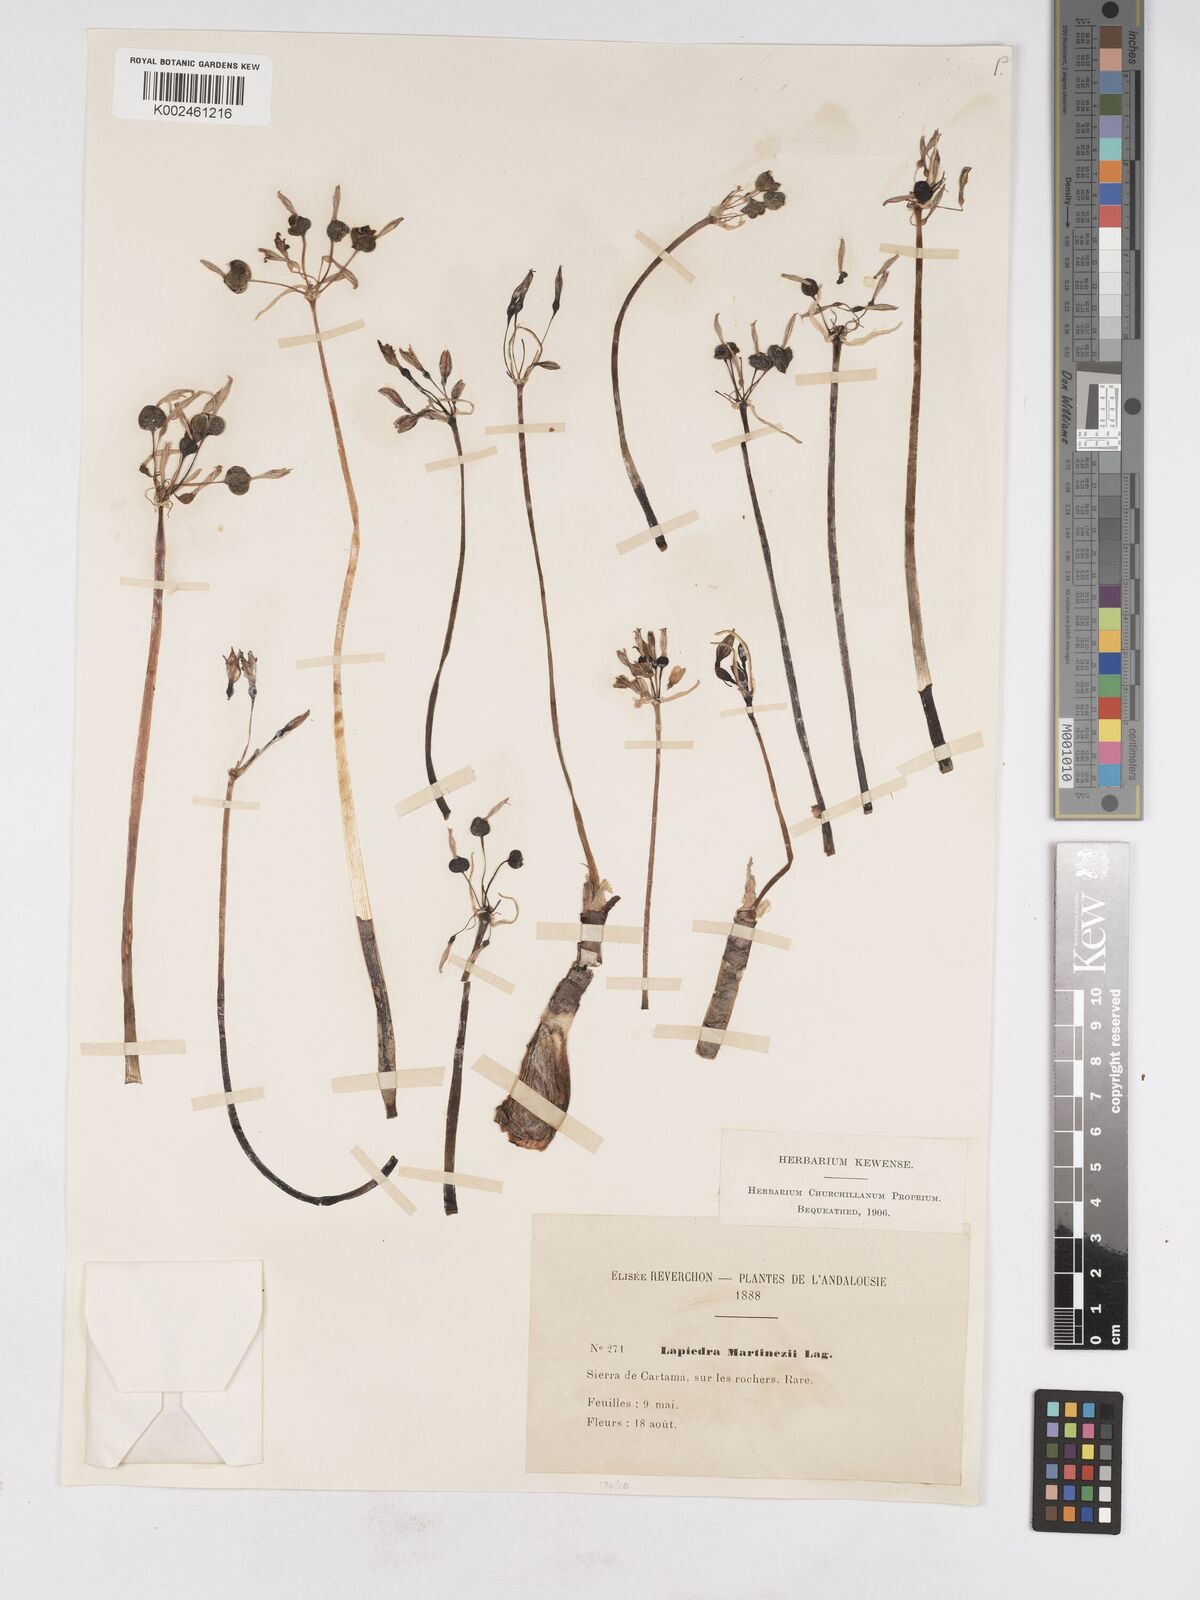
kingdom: Plantae
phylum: Tracheophyta
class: Liliopsida
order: Asparagales
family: Amaryllidaceae
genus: Lapiedra
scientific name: Lapiedra martinezii
